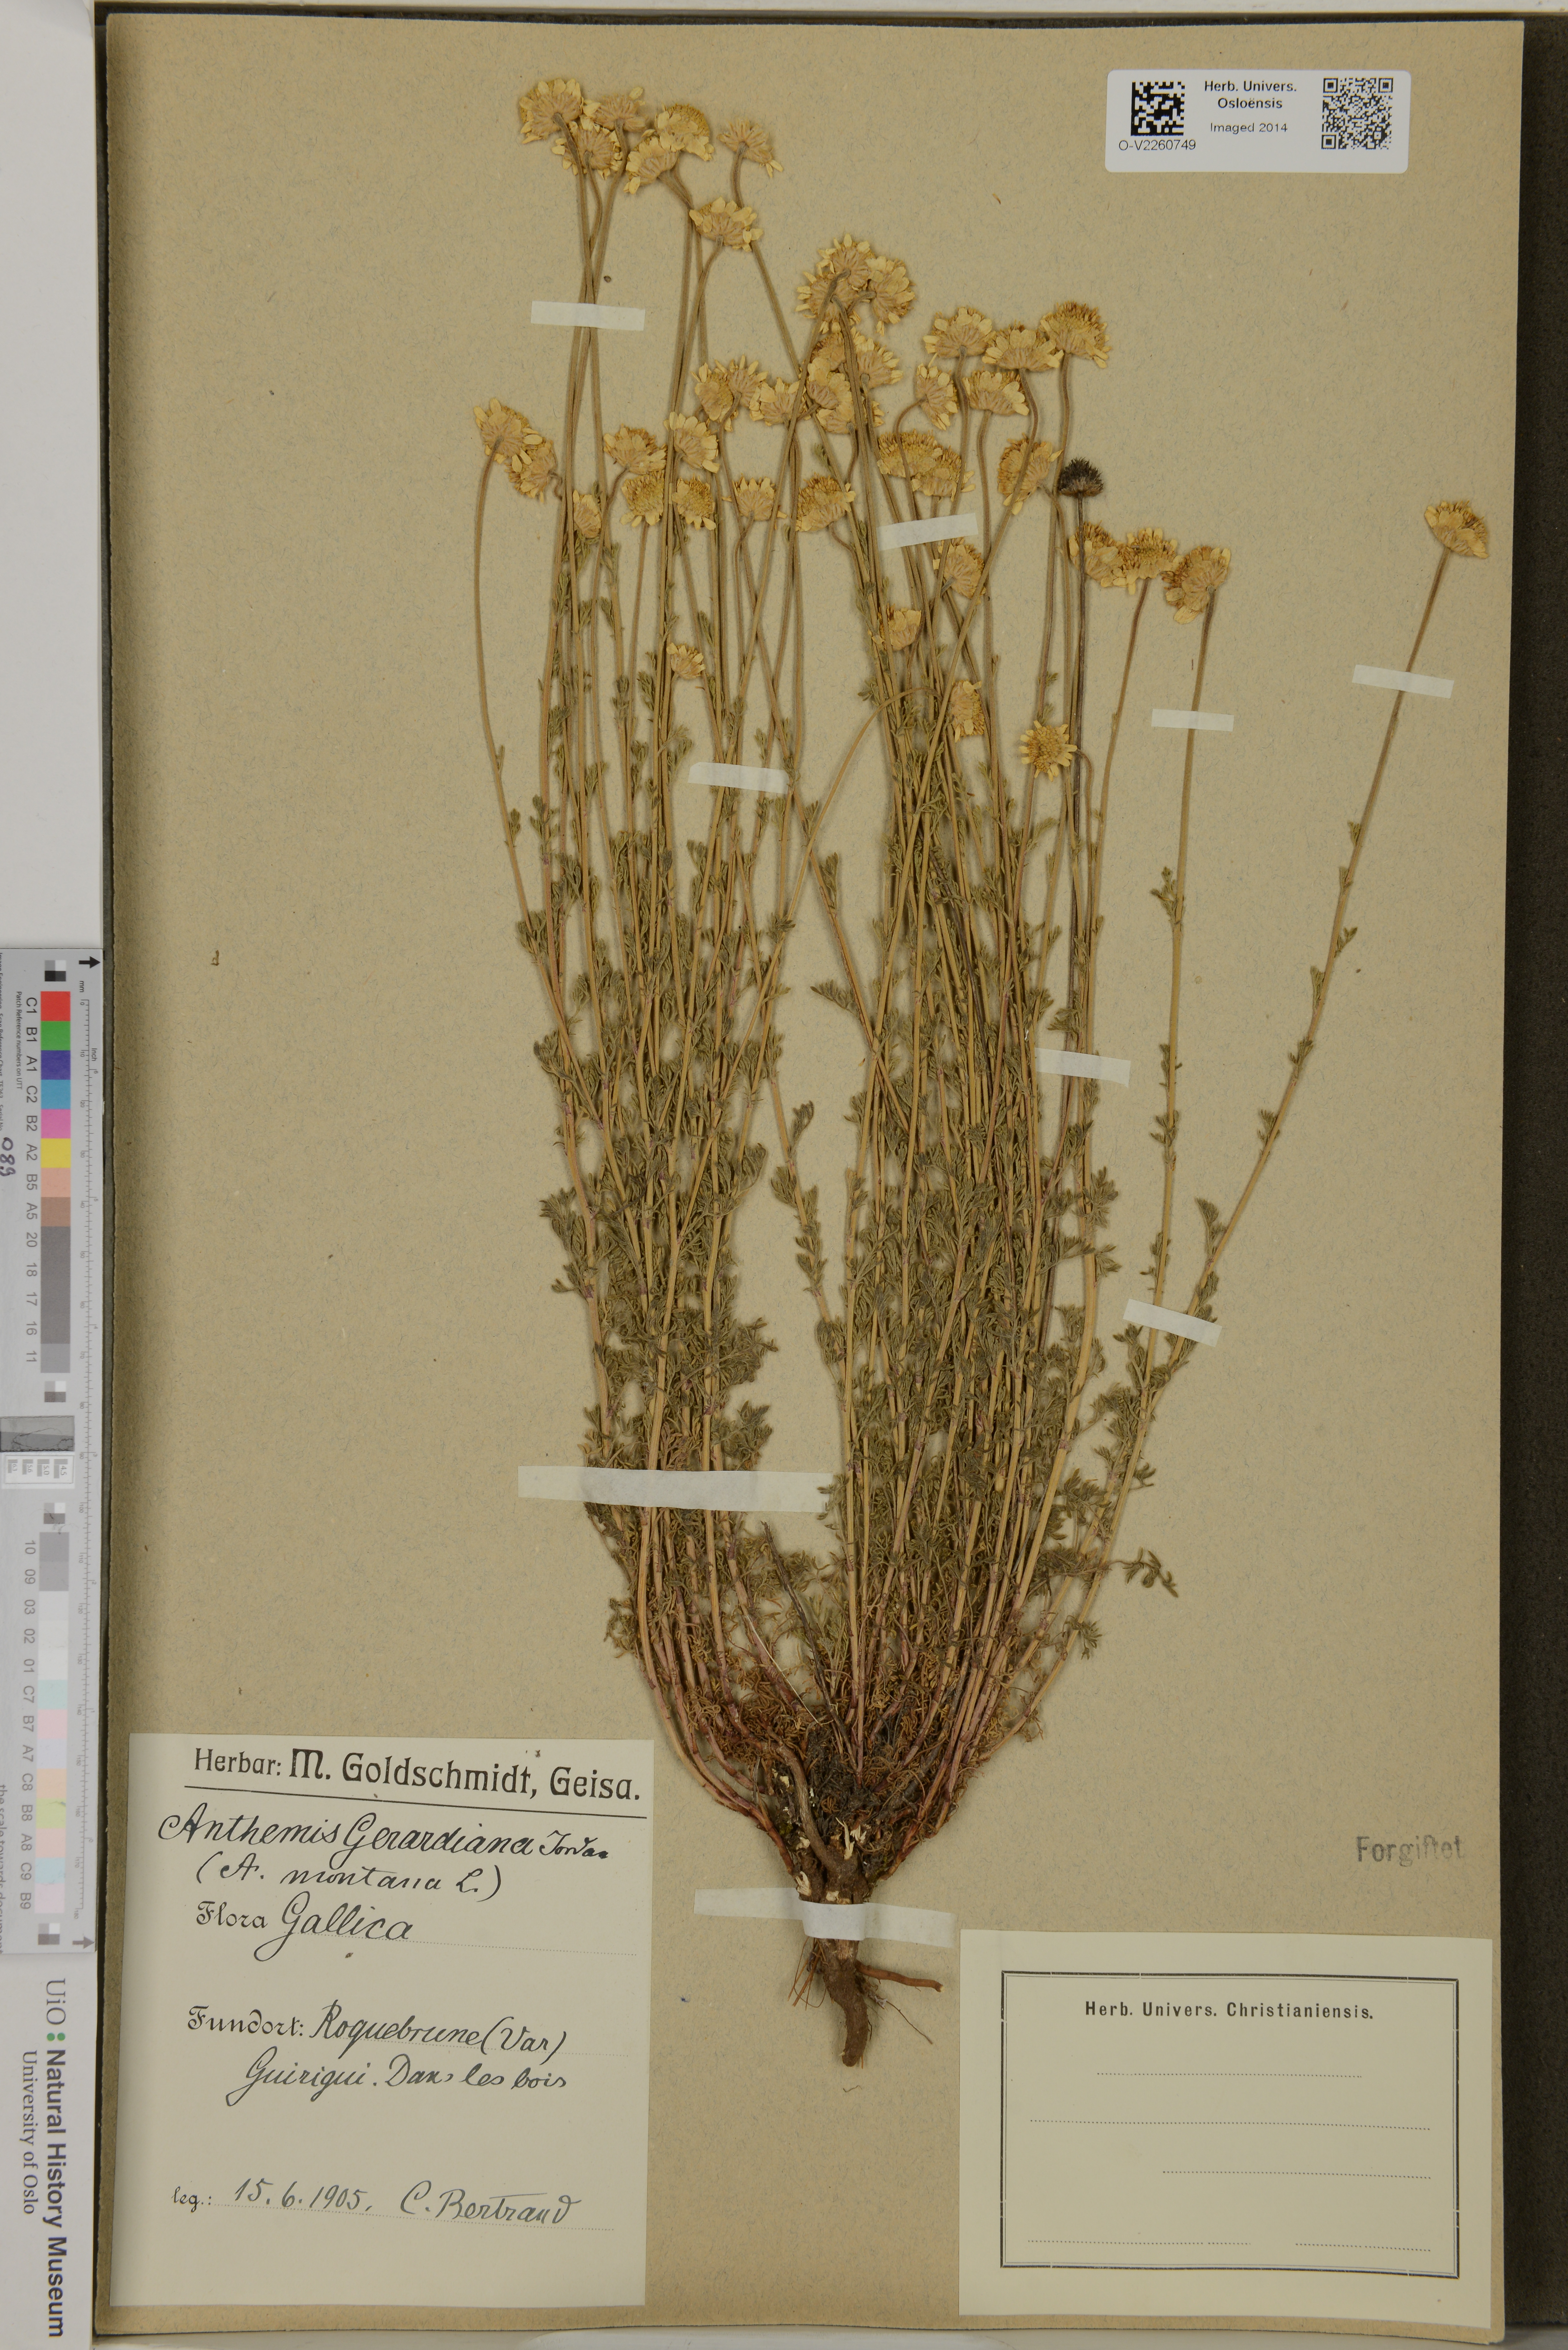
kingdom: Plantae
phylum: Tracheophyta
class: Magnoliopsida
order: Asterales
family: Asteraceae
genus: Anthemis
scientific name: Anthemis cretica
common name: Mountain dog-daisy
